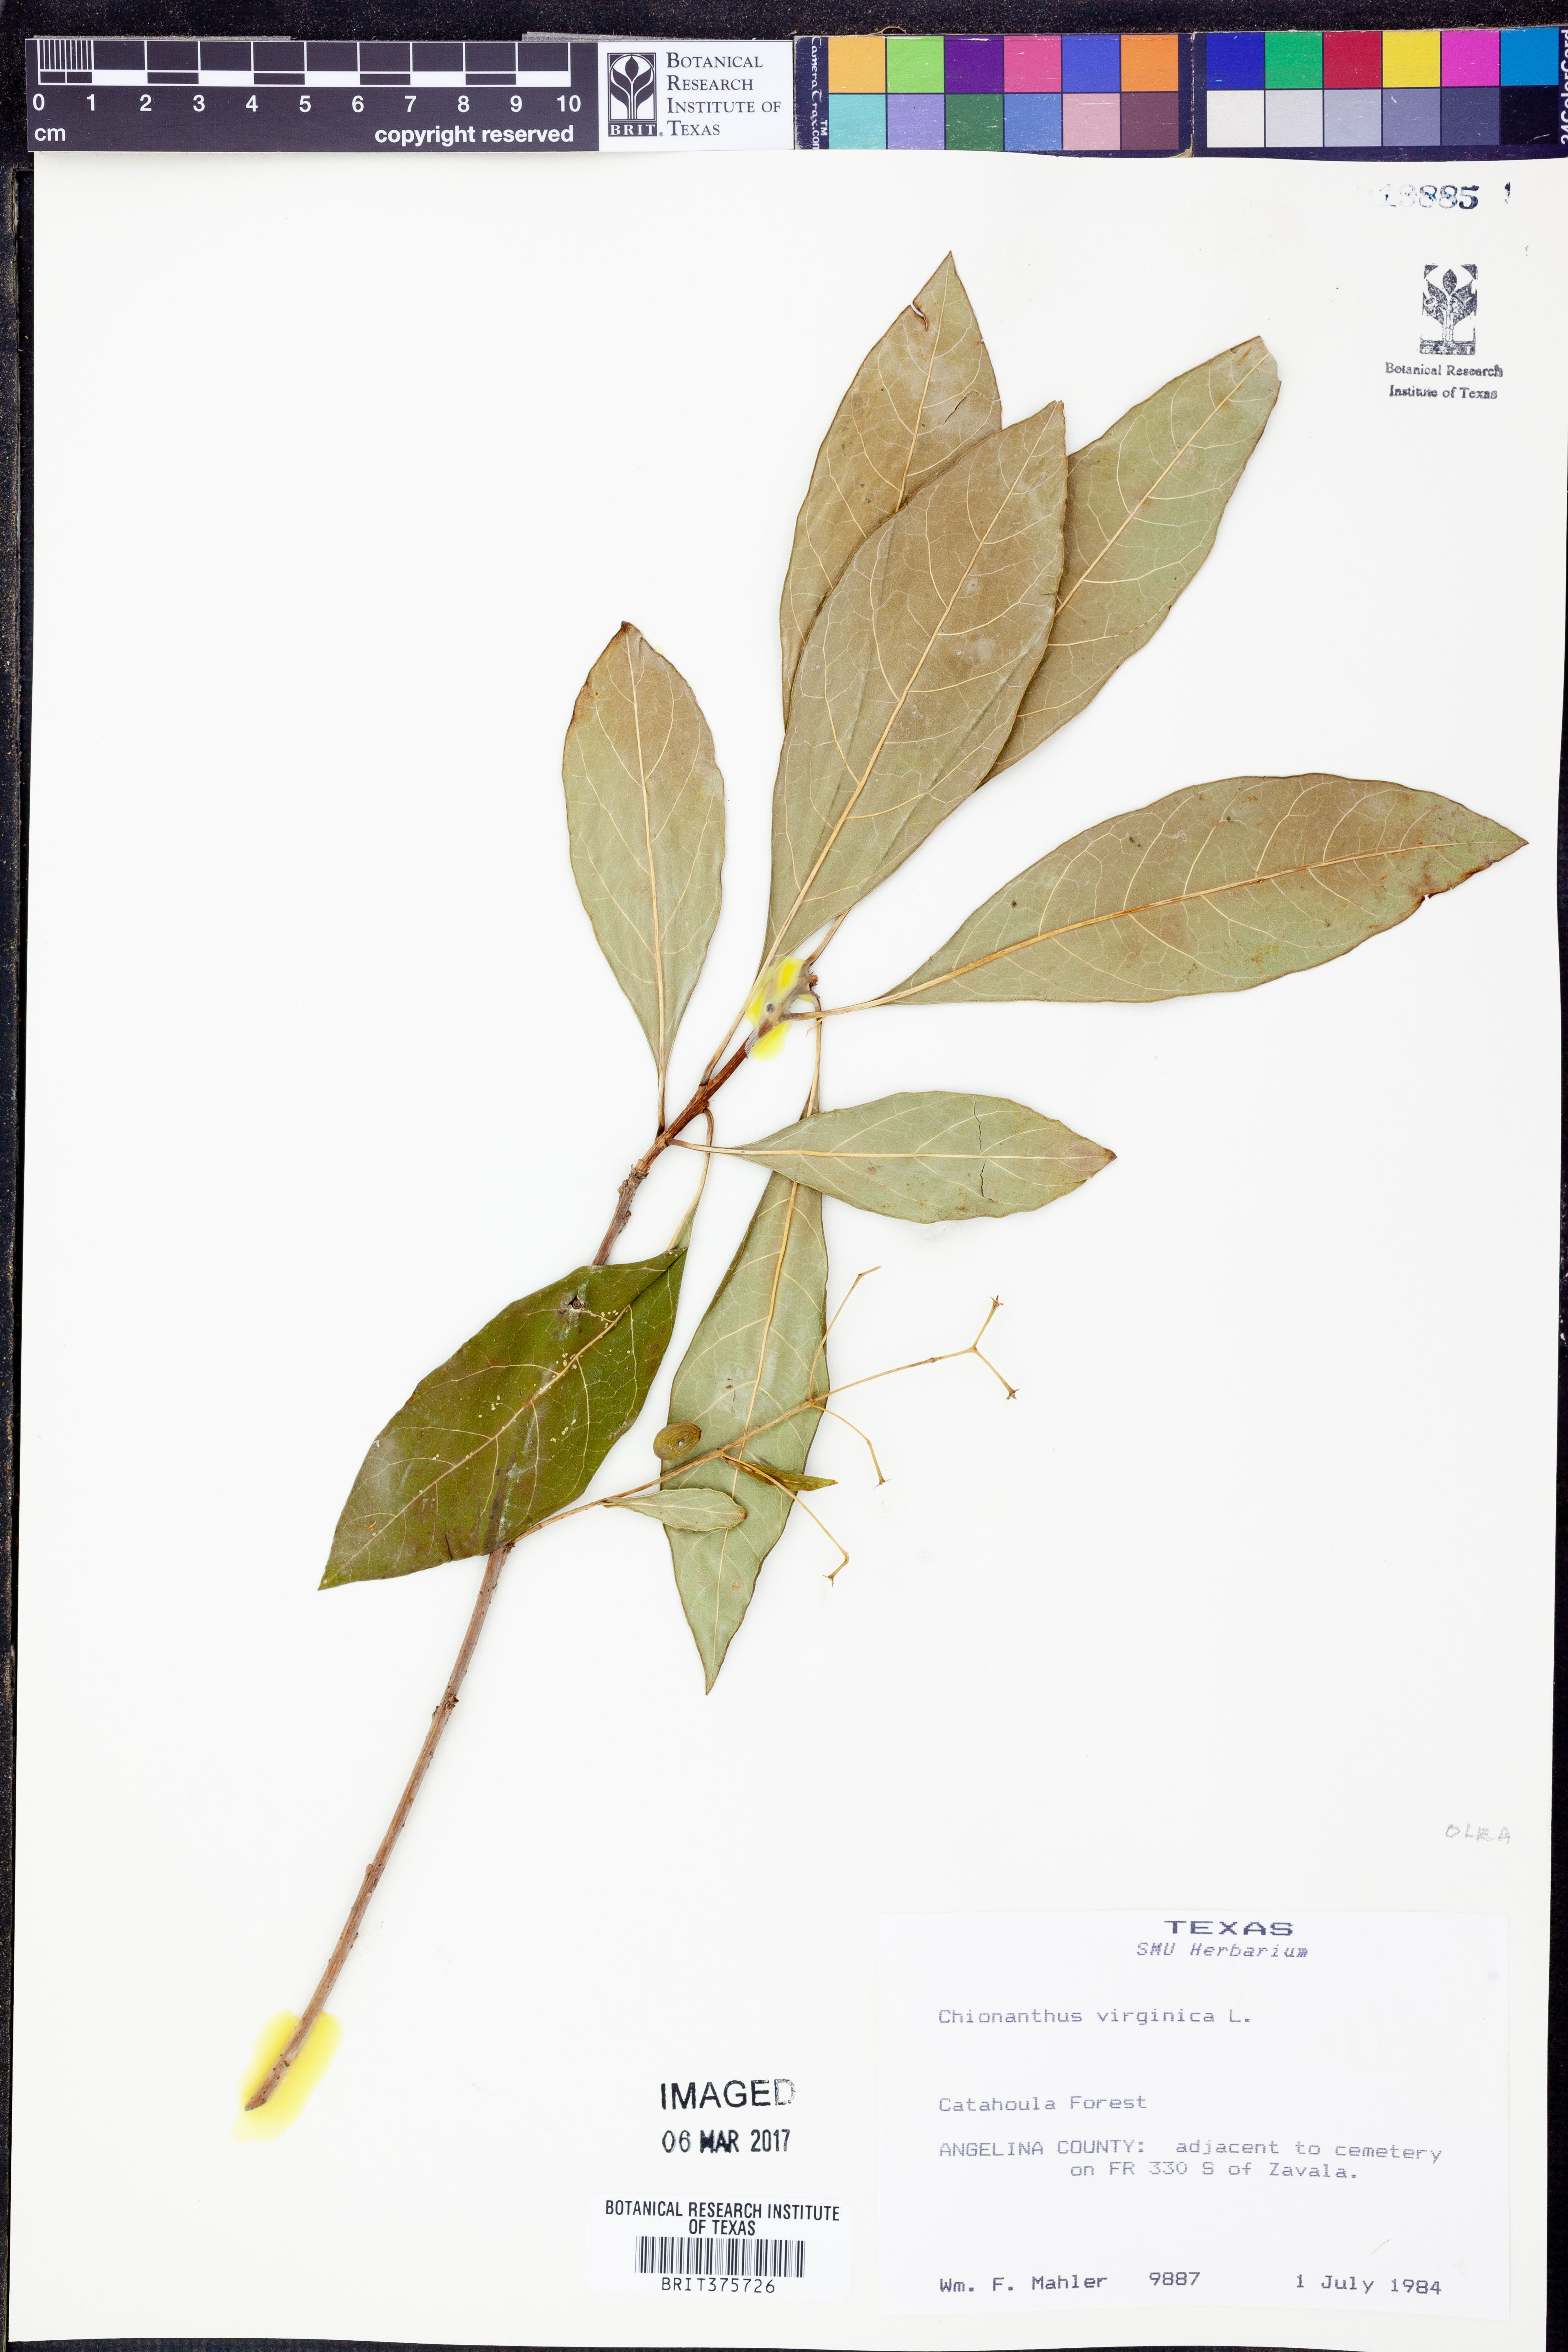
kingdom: Plantae
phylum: Tracheophyta
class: Magnoliopsida
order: Lamiales
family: Oleaceae
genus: Chionanthus
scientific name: Chionanthus virginicus
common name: American fringetree
